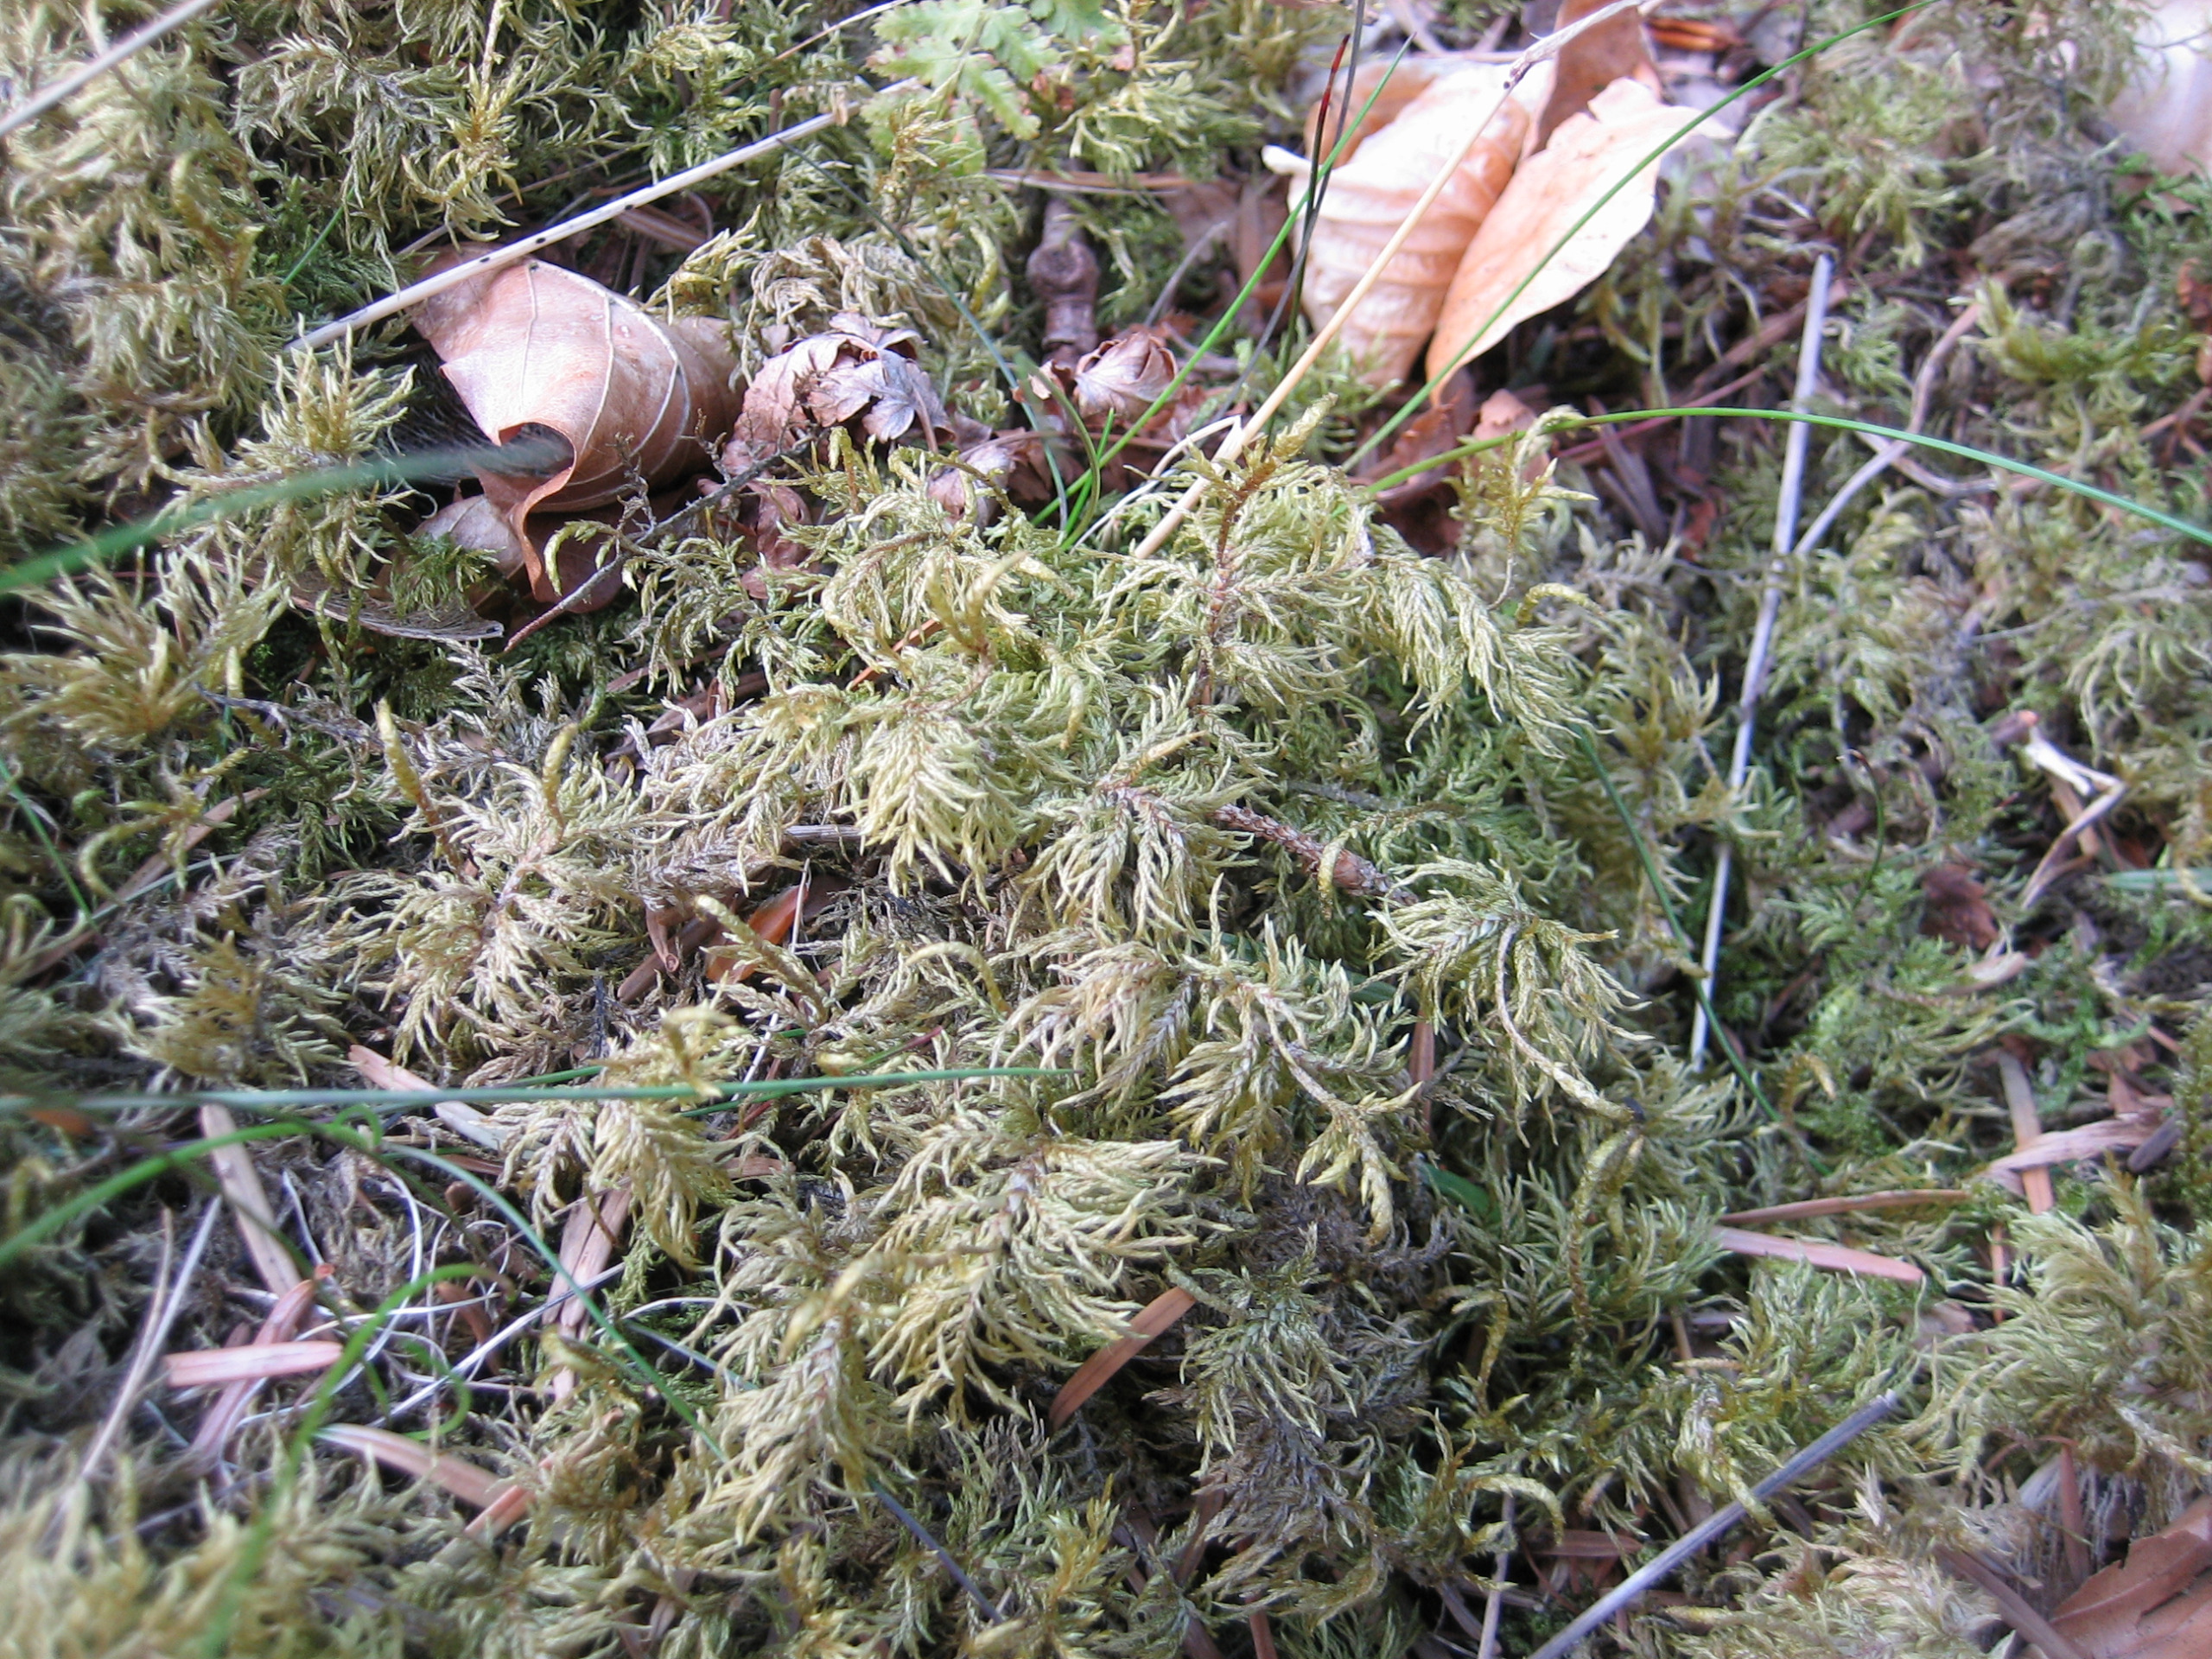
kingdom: Plantae
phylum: Bryophyta
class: Bryopsida
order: Hypnales
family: Hylocomiaceae
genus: Hylocomium
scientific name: Hylocomium splendens
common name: Almindelig etagemos
